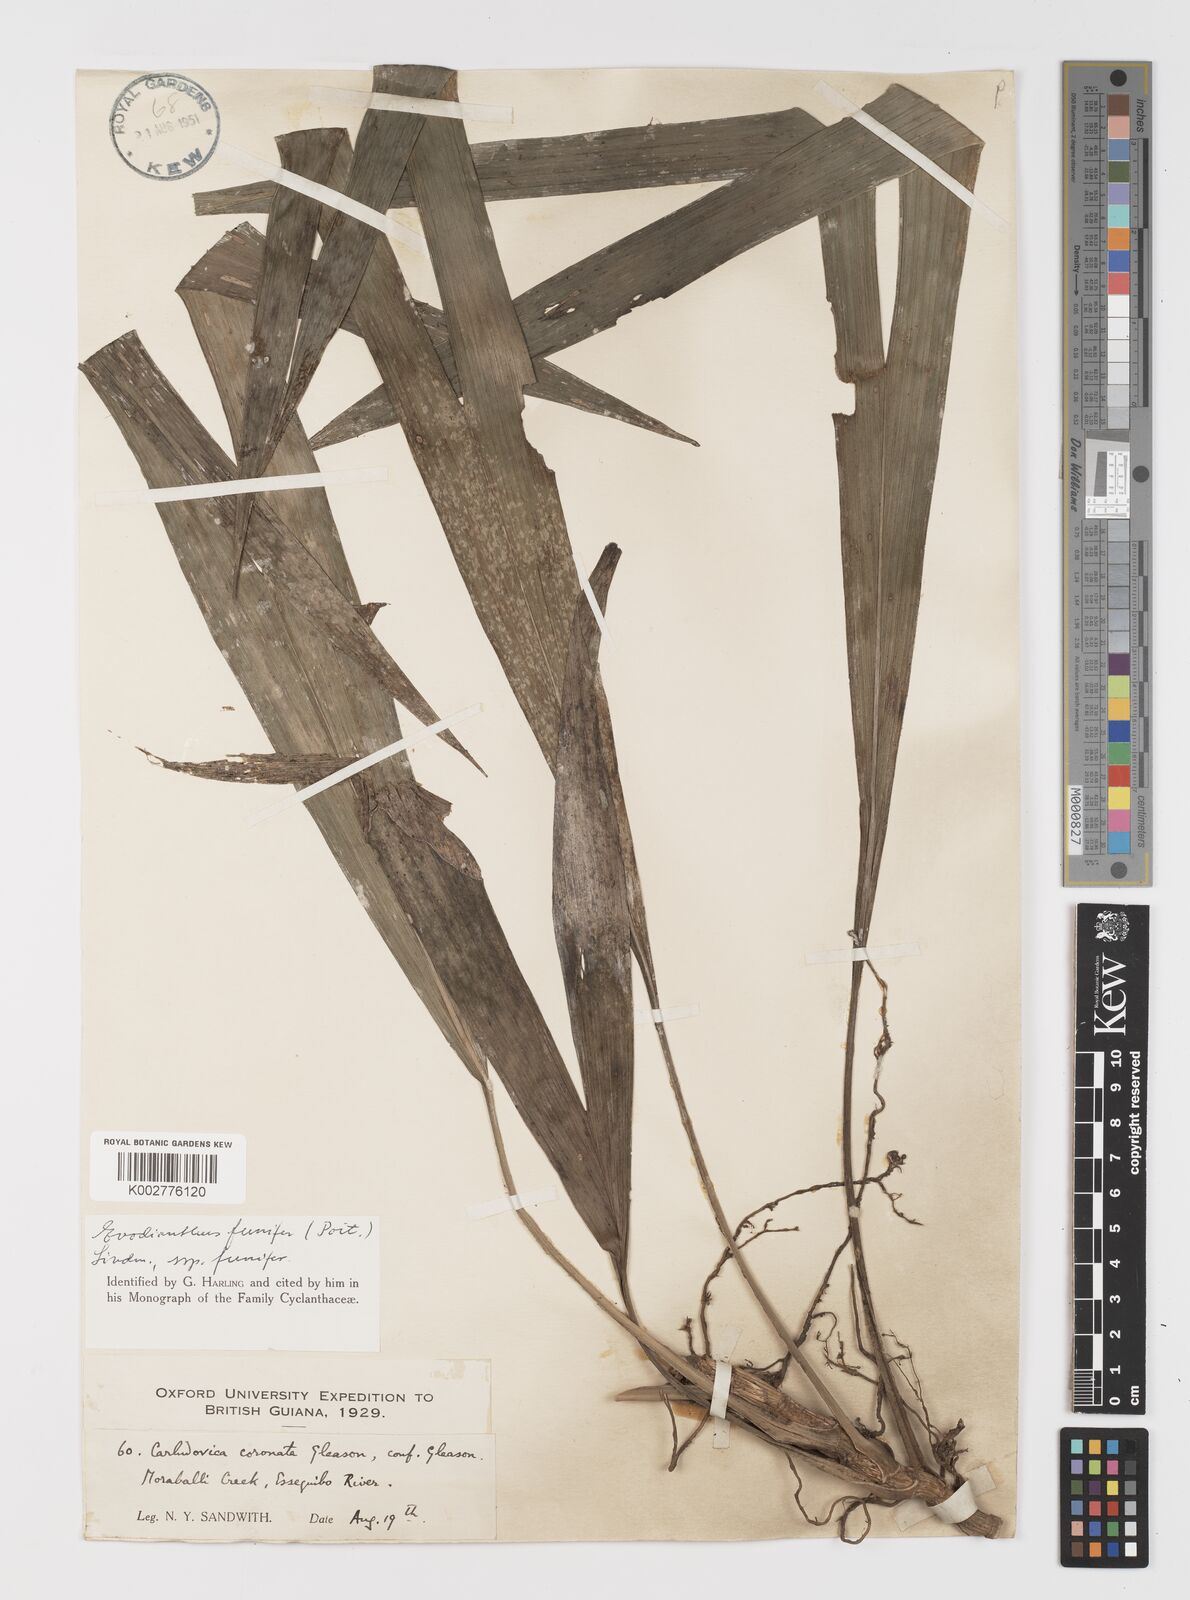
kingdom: Plantae
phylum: Tracheophyta
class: Liliopsida
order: Pandanales
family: Cyclanthaceae
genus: Evodianthus
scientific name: Evodianthus funifer
